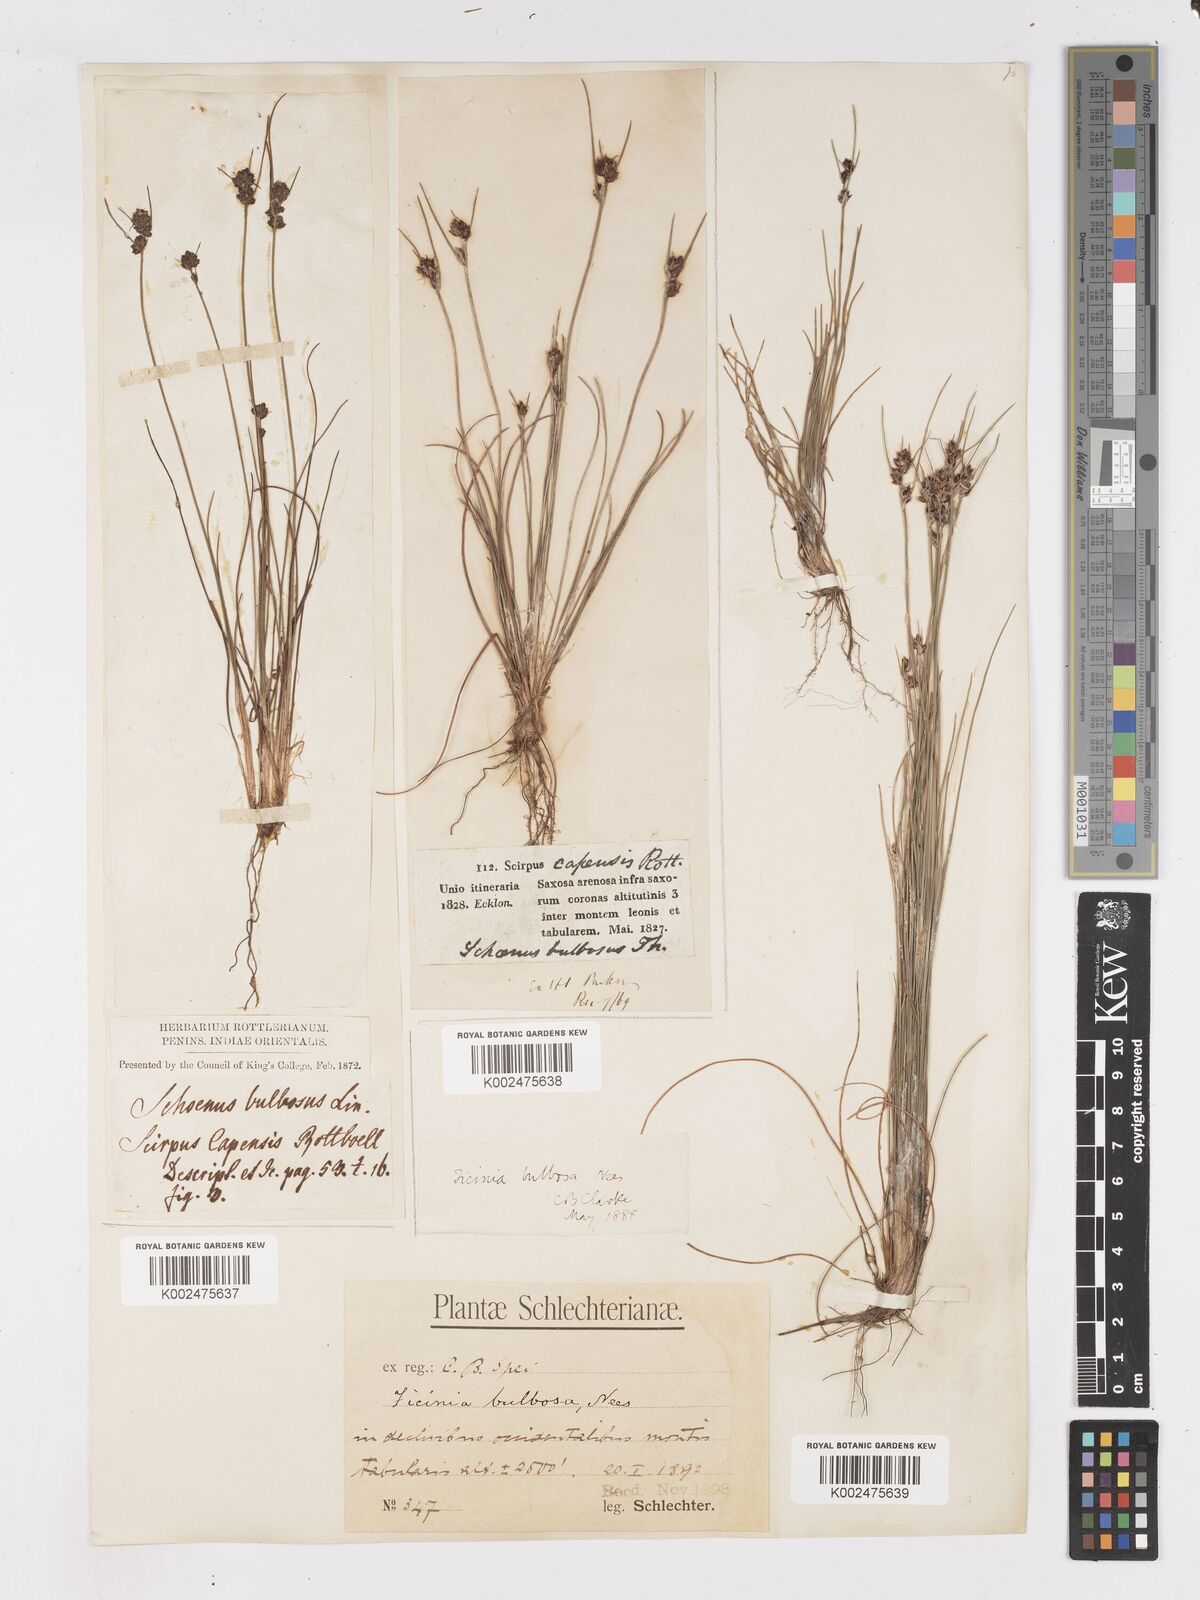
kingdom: Plantae
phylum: Tracheophyta
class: Liliopsida
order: Poales
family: Cyperaceae
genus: Ficinia
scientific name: Ficinia bulbosa
